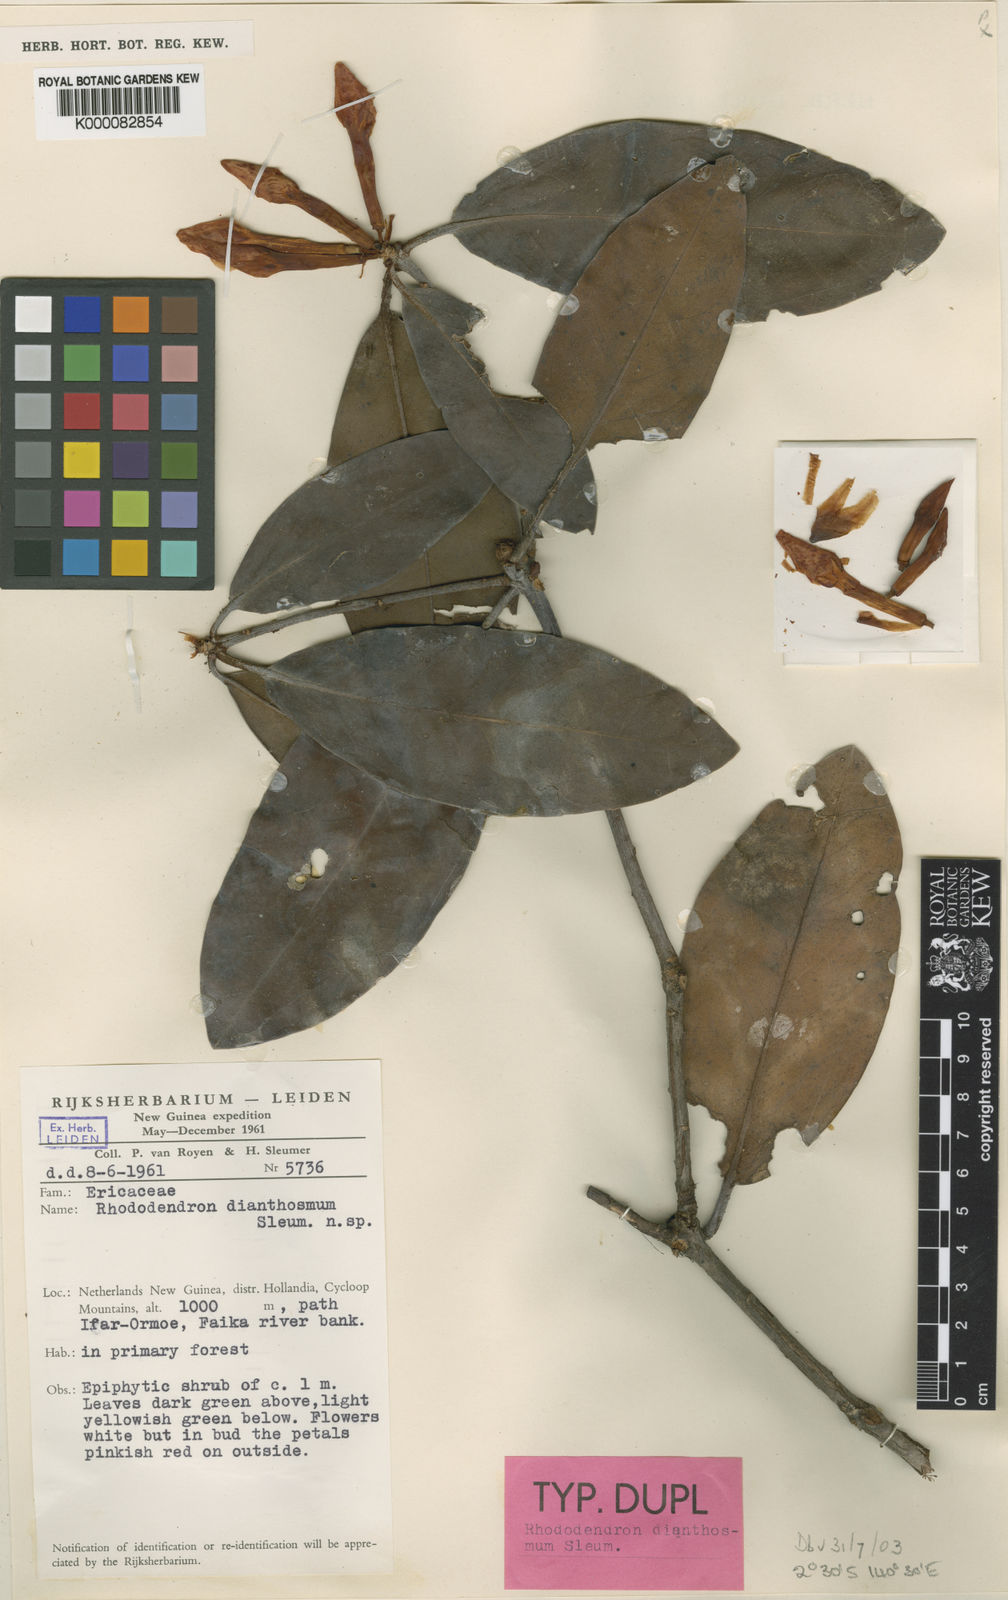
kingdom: Plantae
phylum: Tracheophyta
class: Magnoliopsida
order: Ericales
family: Ericaceae
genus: Rhododendron
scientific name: Rhododendron dianthosmum
